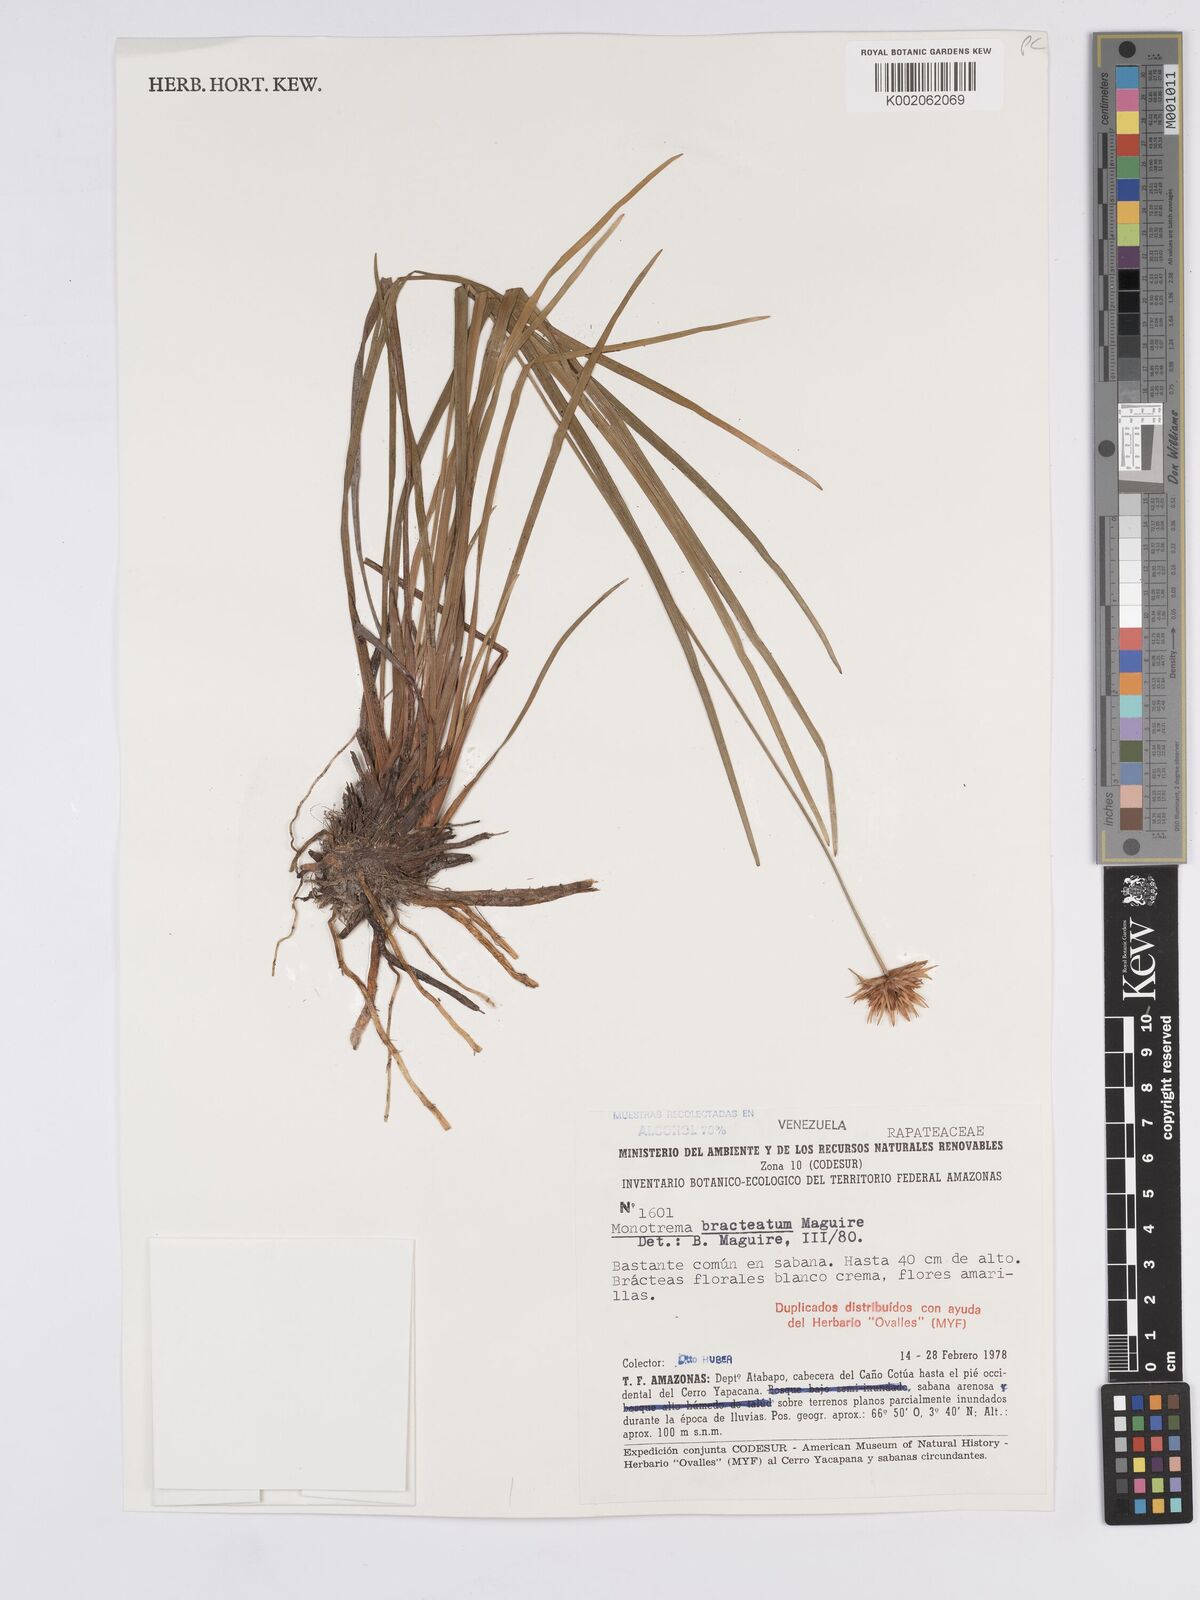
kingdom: Plantae
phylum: Tracheophyta
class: Liliopsida
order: Poales
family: Rapateaceae
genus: Monotrema
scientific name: Monotrema bracteatum
